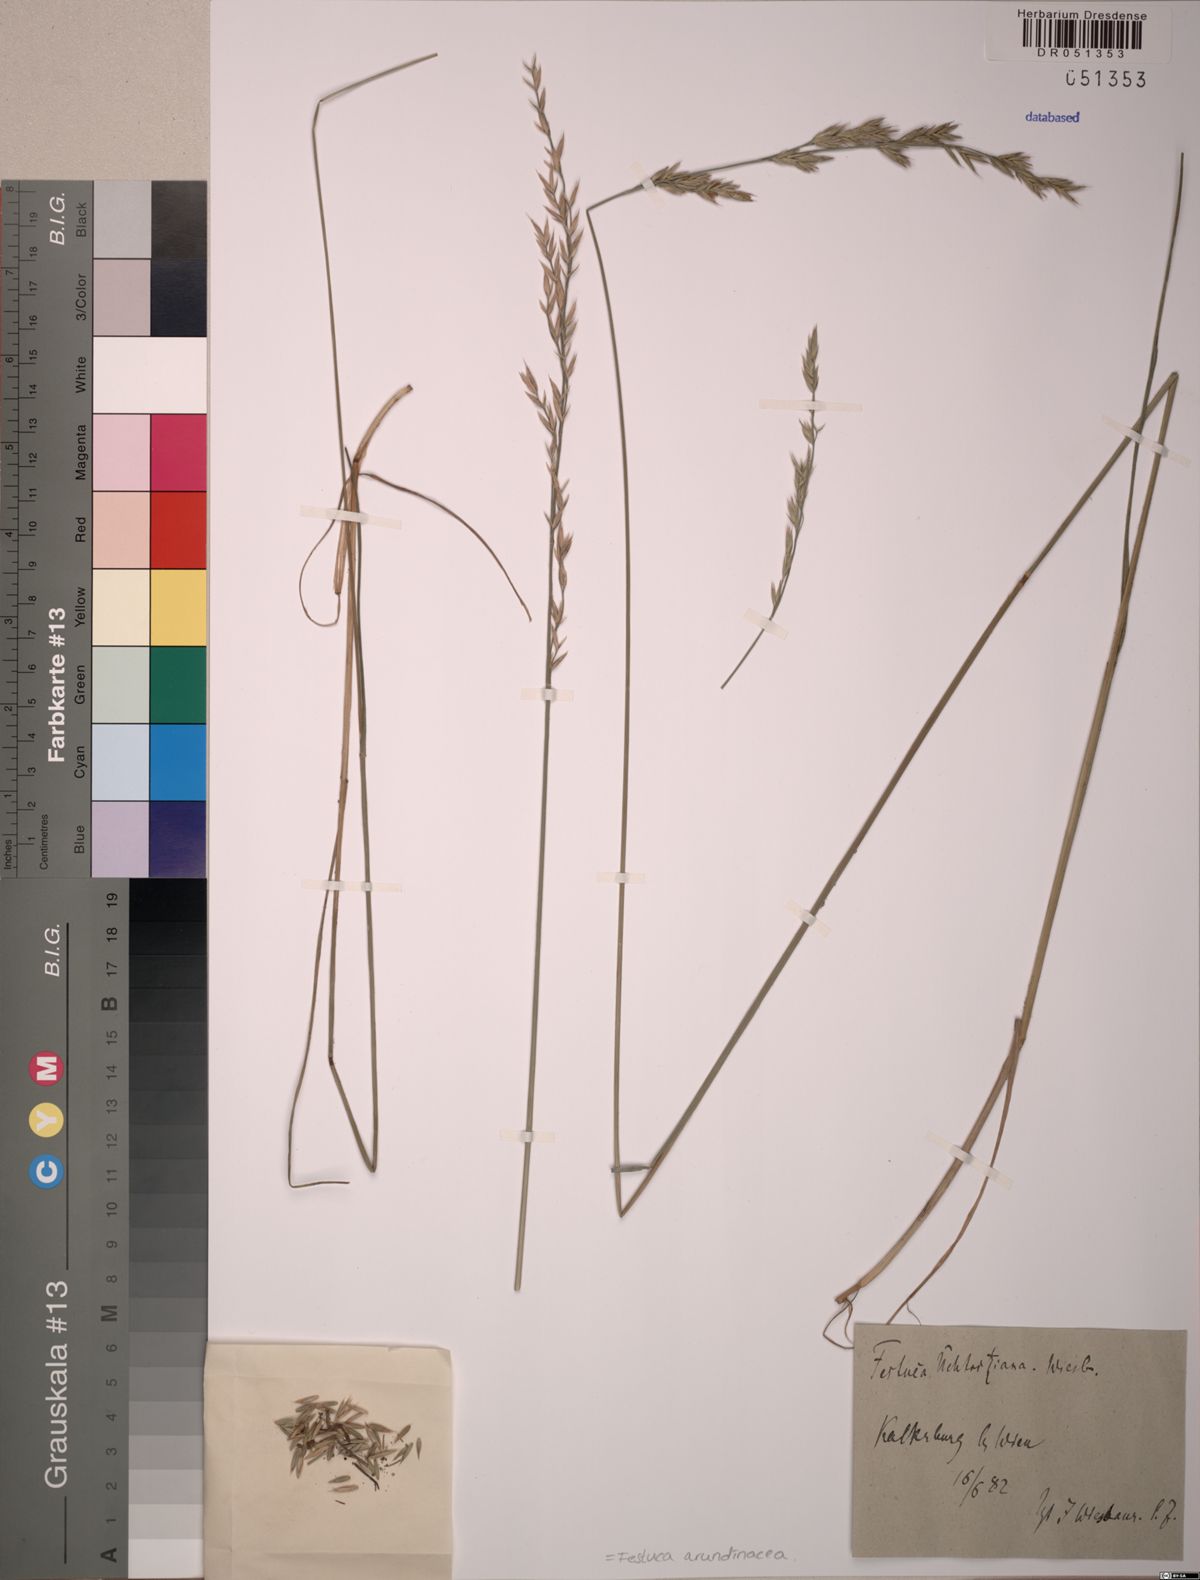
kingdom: Plantae
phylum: Tracheophyta
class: Liliopsida
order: Poales
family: Poaceae
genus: Lolium
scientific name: Lolium arundinaceum
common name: Reed fescue
